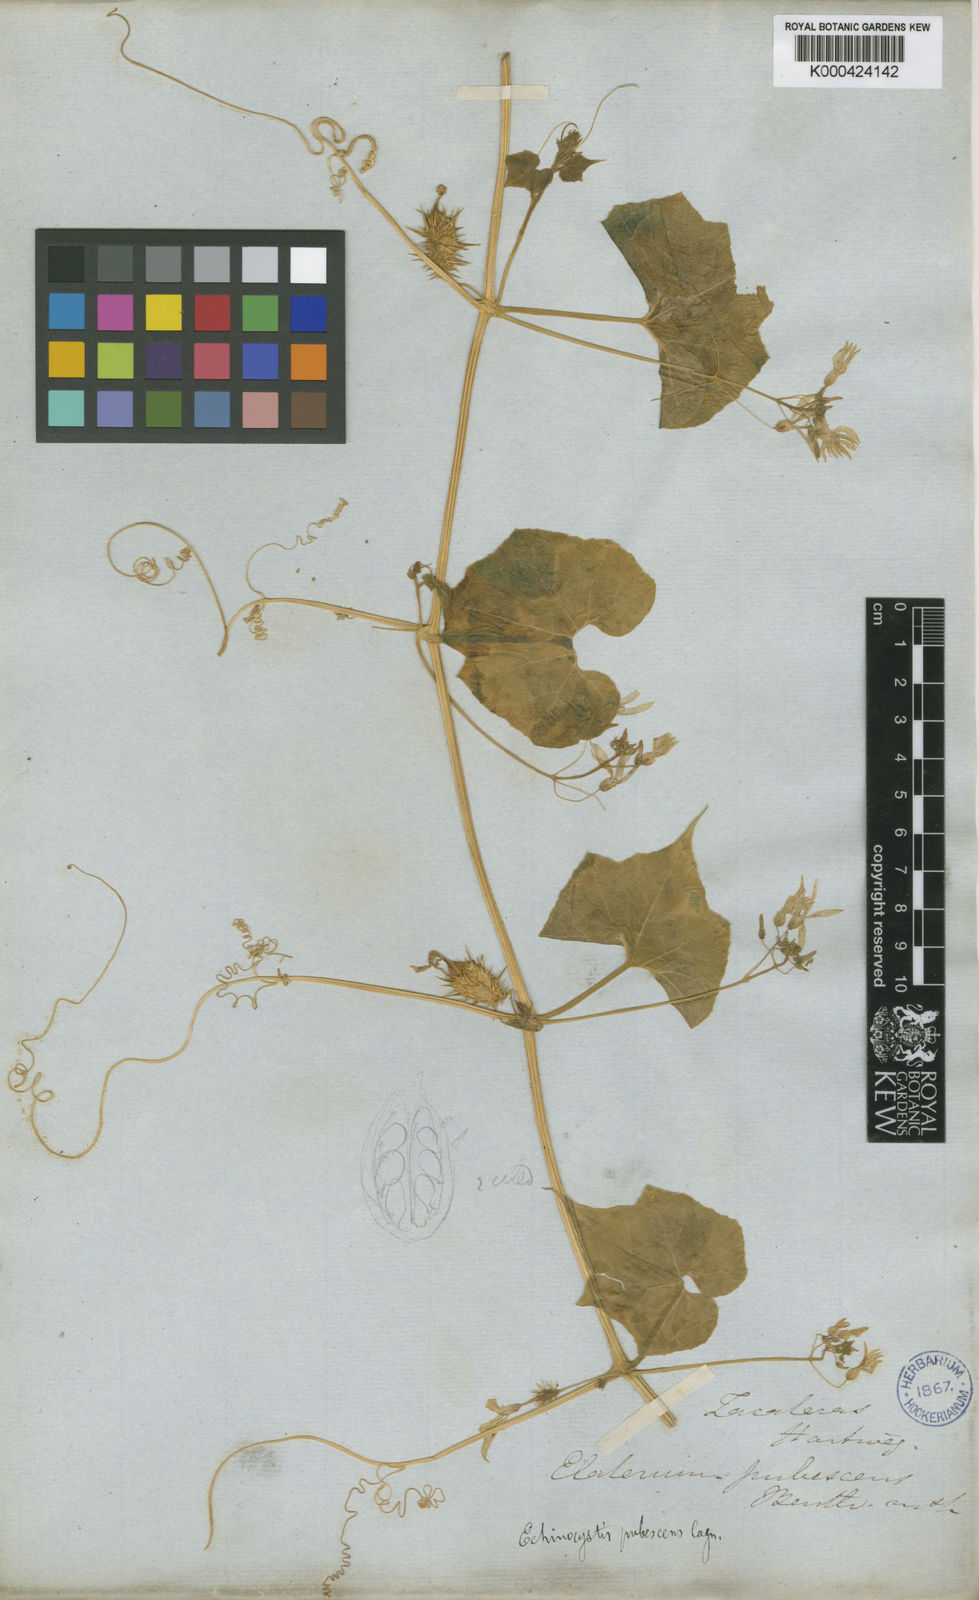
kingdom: Plantae
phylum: Tracheophyta
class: Magnoliopsida
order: Cucurbitales
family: Cucurbitaceae
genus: Echinopepon
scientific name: Echinopepon pubescens
